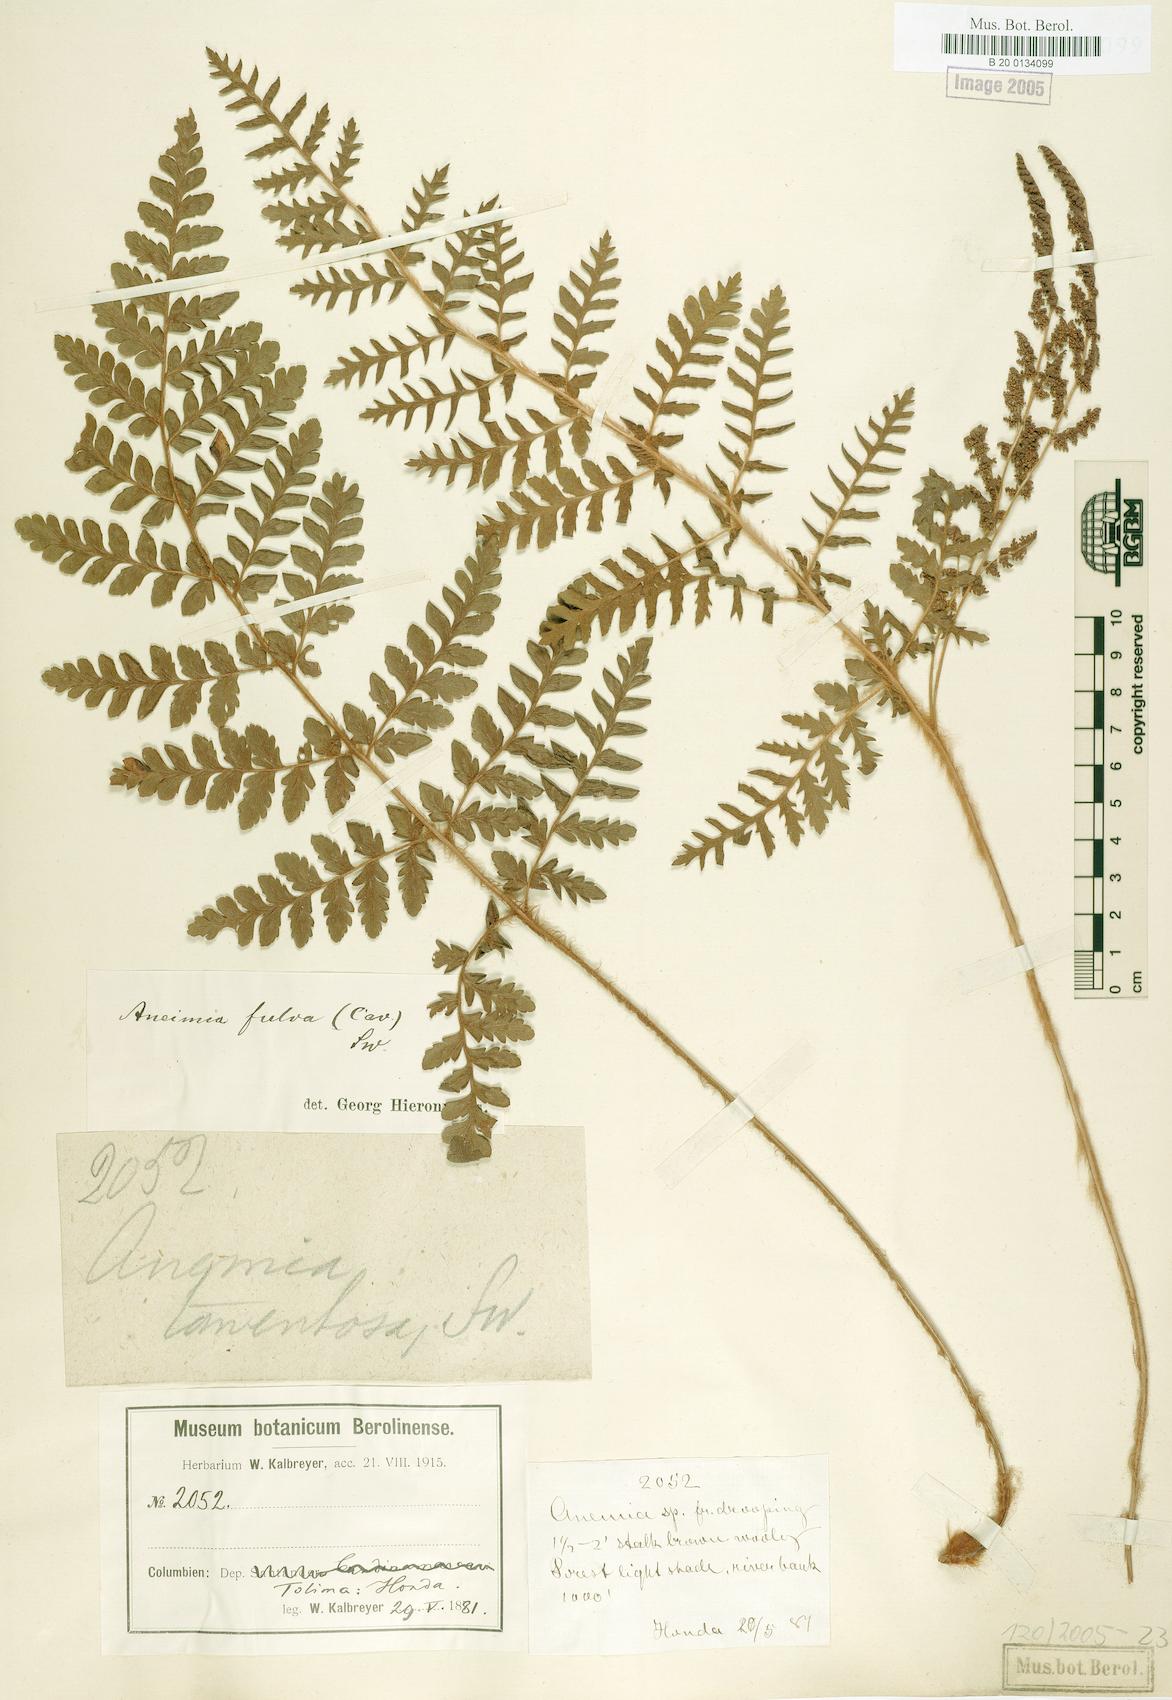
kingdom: Plantae
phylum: Tracheophyta
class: Polypodiopsida
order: Schizaeales
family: Anemiaceae
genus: Anemia
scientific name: Anemia flexuosa
